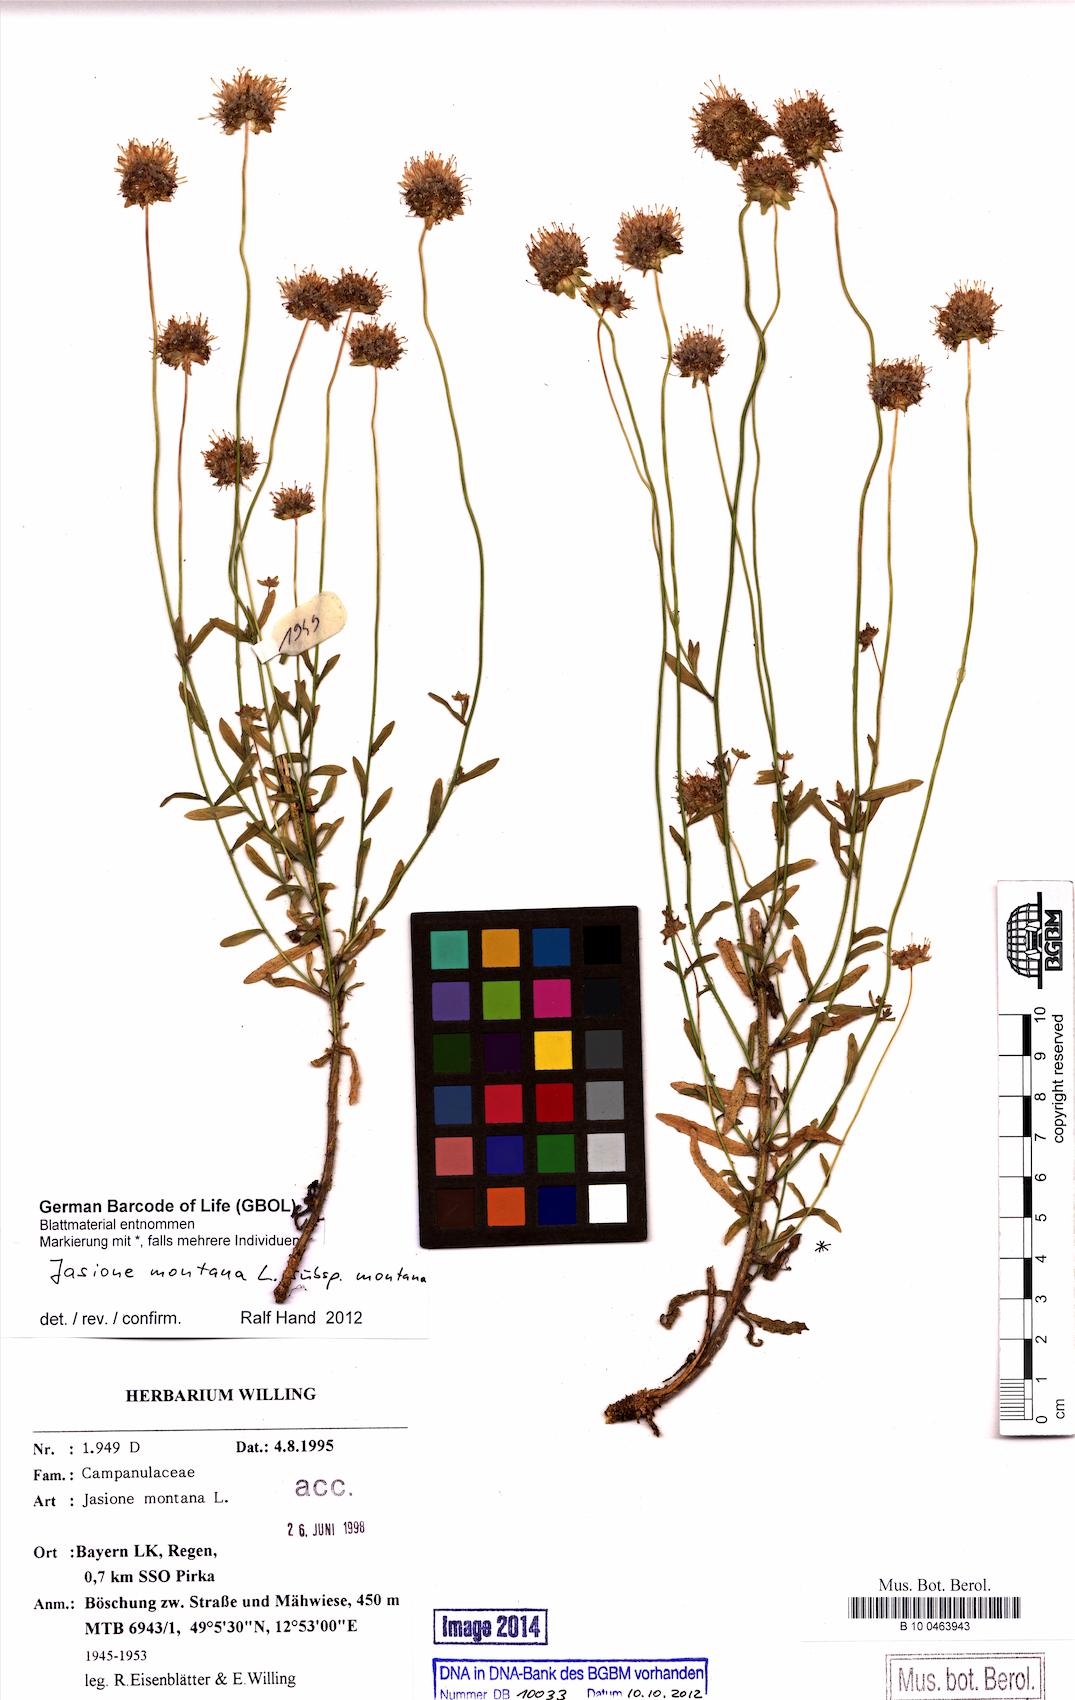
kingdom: Plantae
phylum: Tracheophyta
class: Magnoliopsida
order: Asterales
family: Campanulaceae
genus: Jasione
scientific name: Jasione montana
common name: Sheep's-bit
